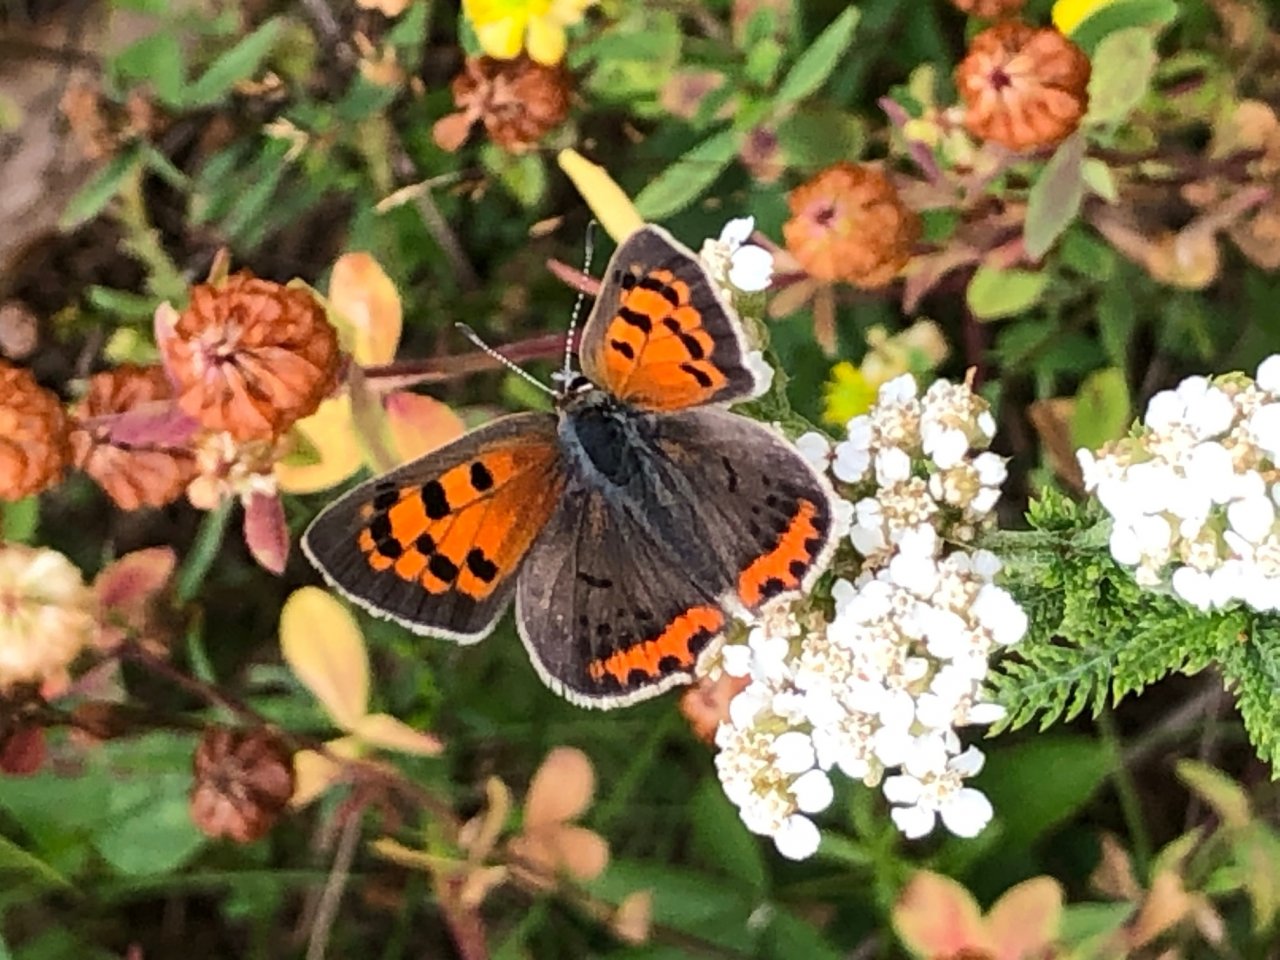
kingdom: Animalia
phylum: Arthropoda
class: Insecta
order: Lepidoptera
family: Lycaenidae
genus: Lycaena
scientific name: Lycaena phlaeas
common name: American Copper
